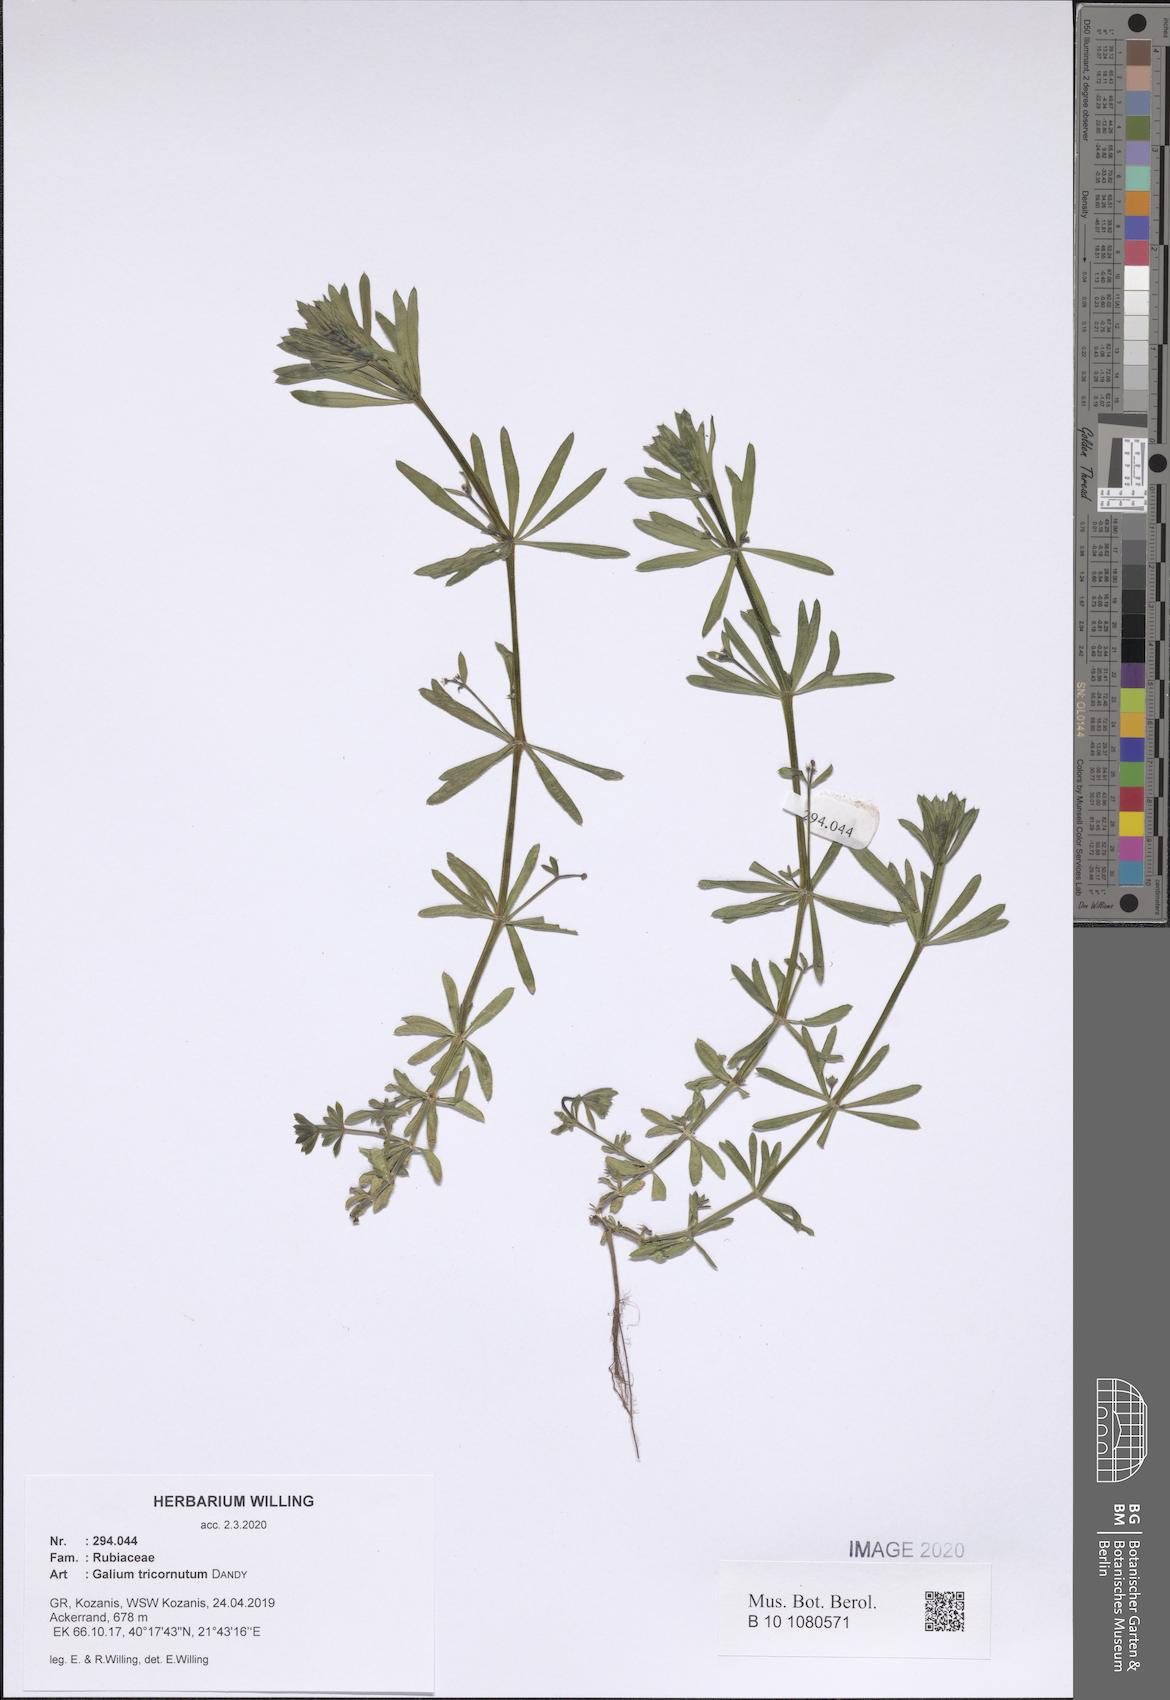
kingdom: Plantae
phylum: Tracheophyta
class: Magnoliopsida
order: Gentianales
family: Rubiaceae
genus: Galium
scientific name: Galium tricornutum
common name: Corn cleavers
